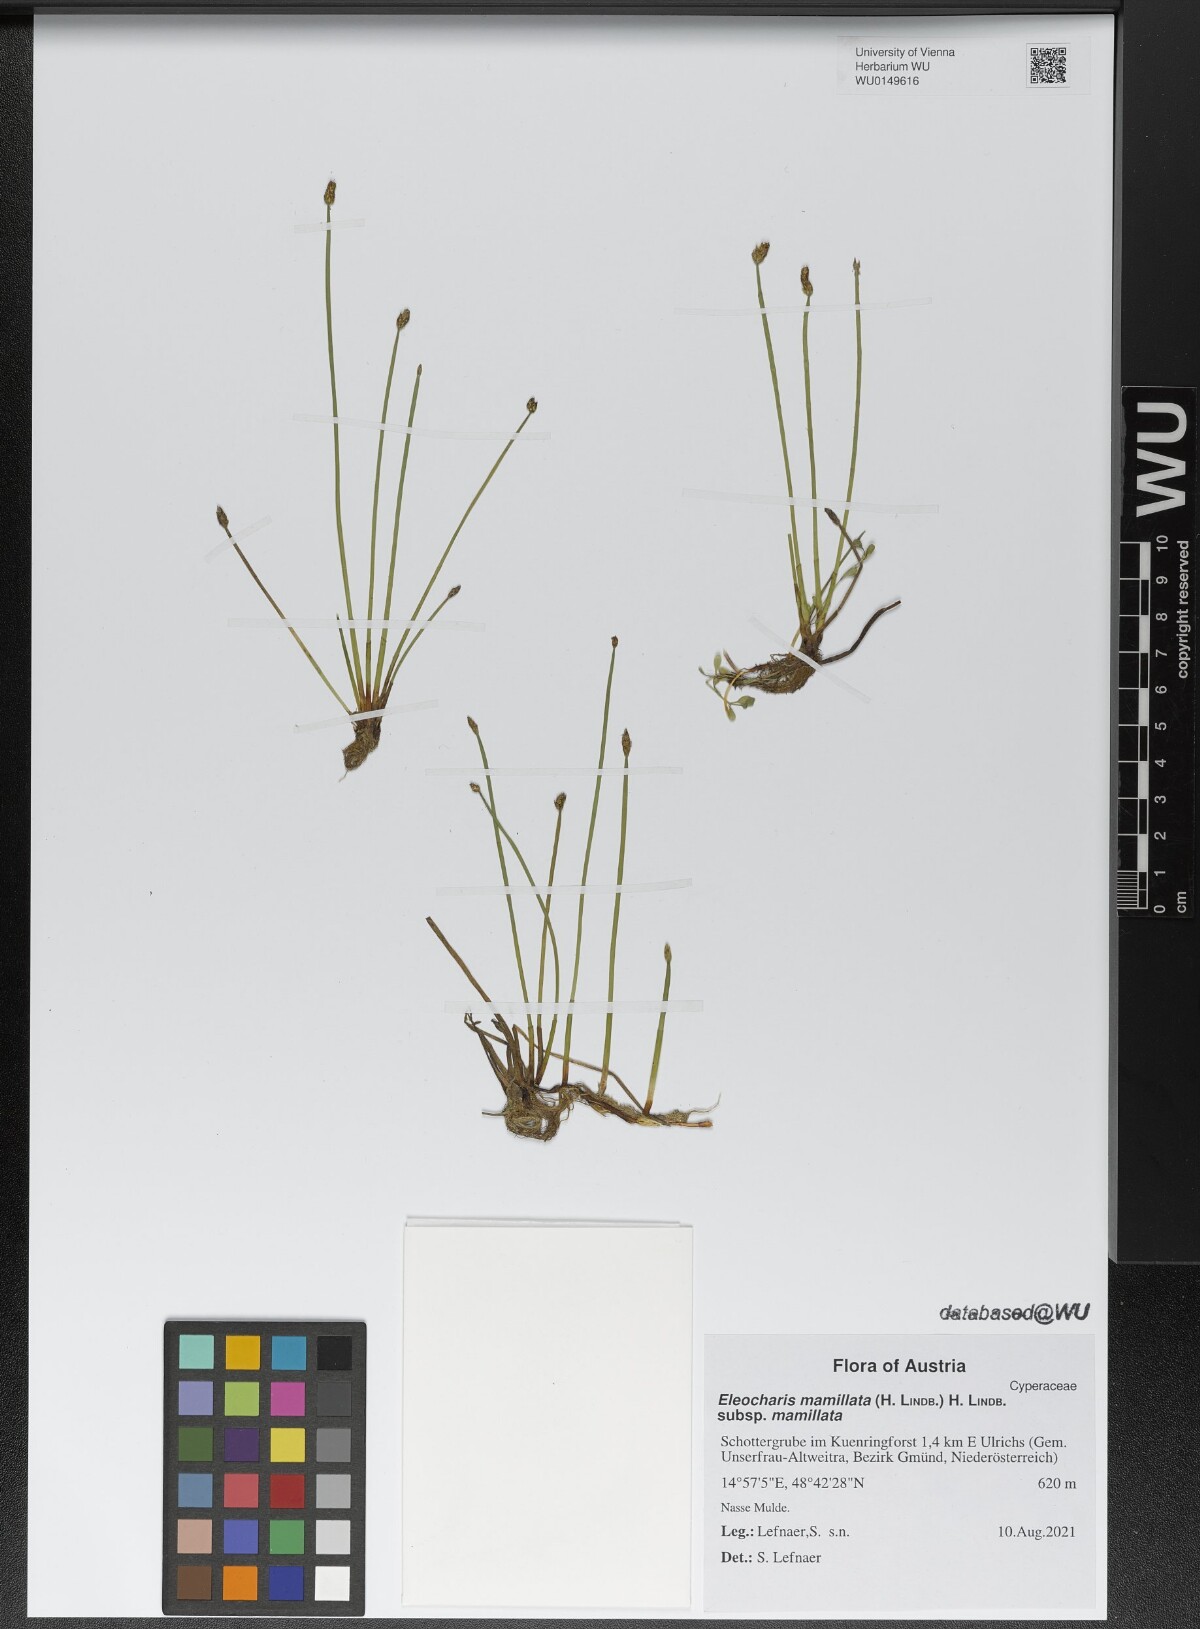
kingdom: Plantae
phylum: Tracheophyta
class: Liliopsida
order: Poales
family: Cyperaceae
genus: Eleocharis
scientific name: Eleocharis mamillata
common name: Northern spike-rush
